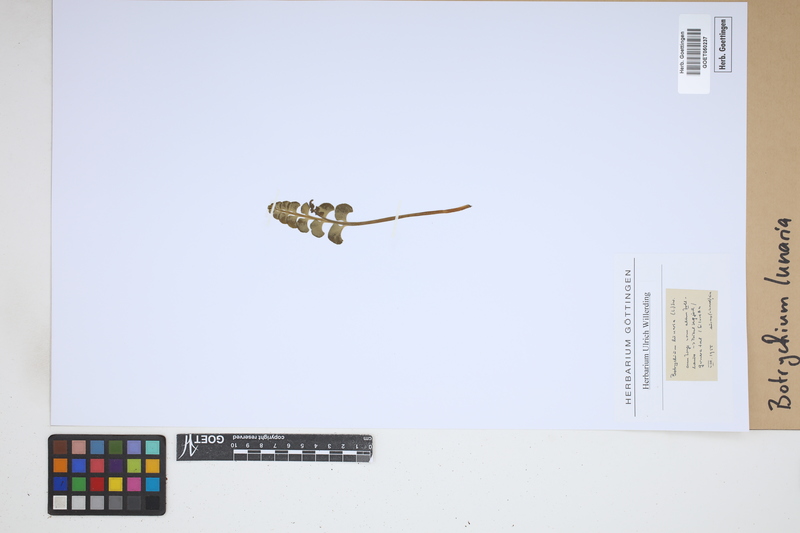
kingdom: Plantae
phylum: Tracheophyta
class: Polypodiopsida
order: Ophioglossales
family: Ophioglossaceae
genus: Botrychium
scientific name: Botrychium lunaria
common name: Moonwort
